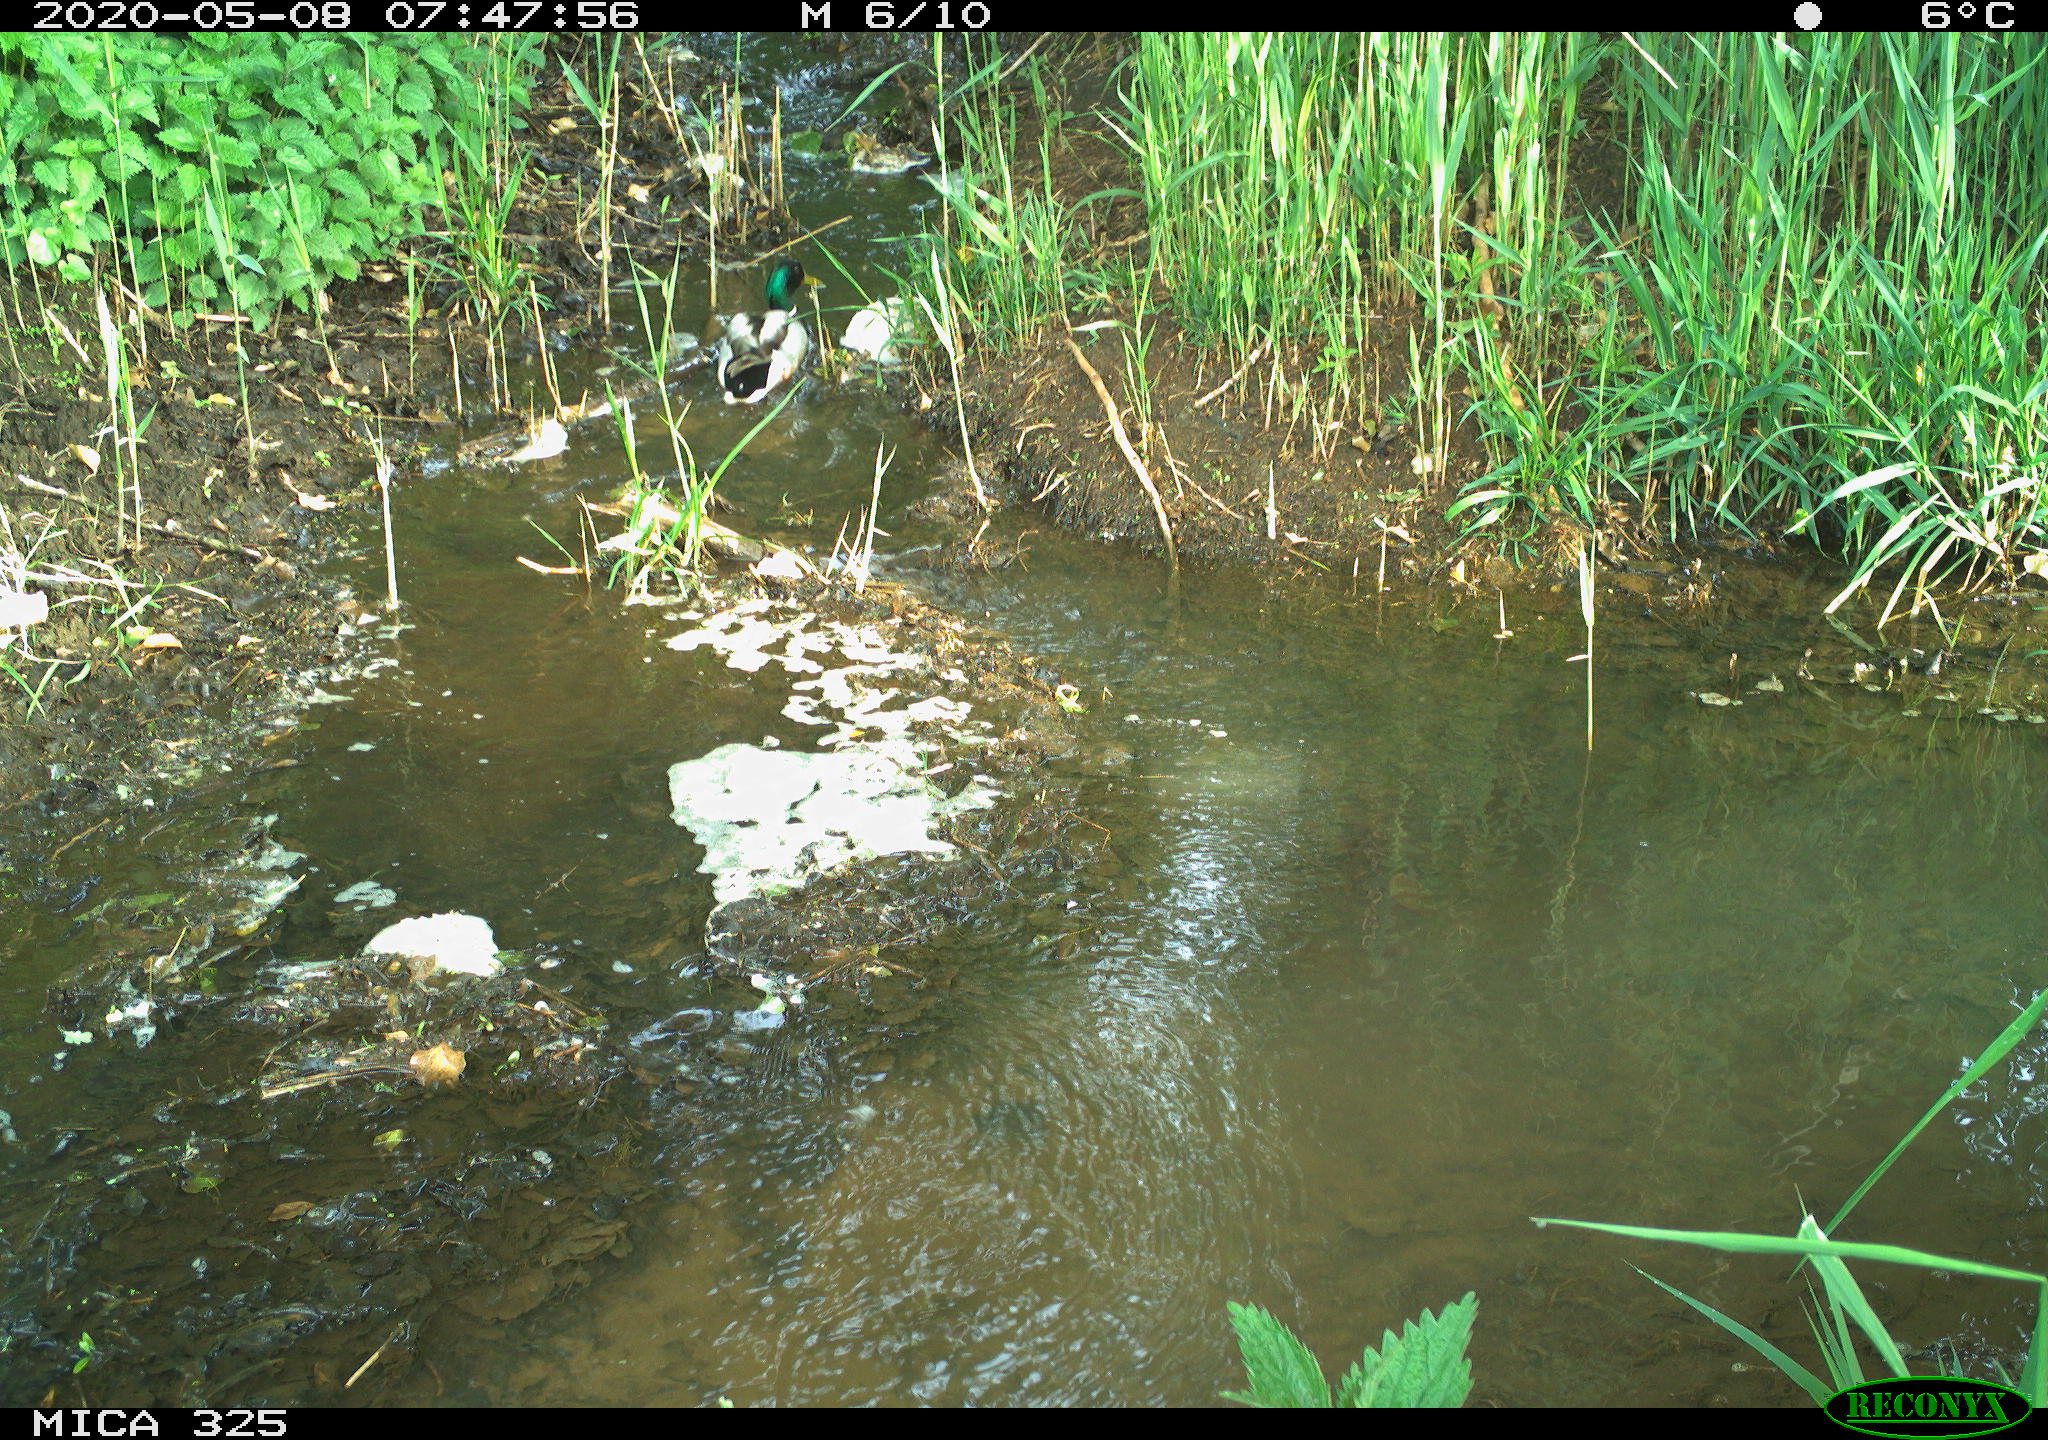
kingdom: Animalia
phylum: Chordata
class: Aves
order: Anseriformes
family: Anatidae
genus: Anas
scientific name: Anas platyrhynchos
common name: Mallard
